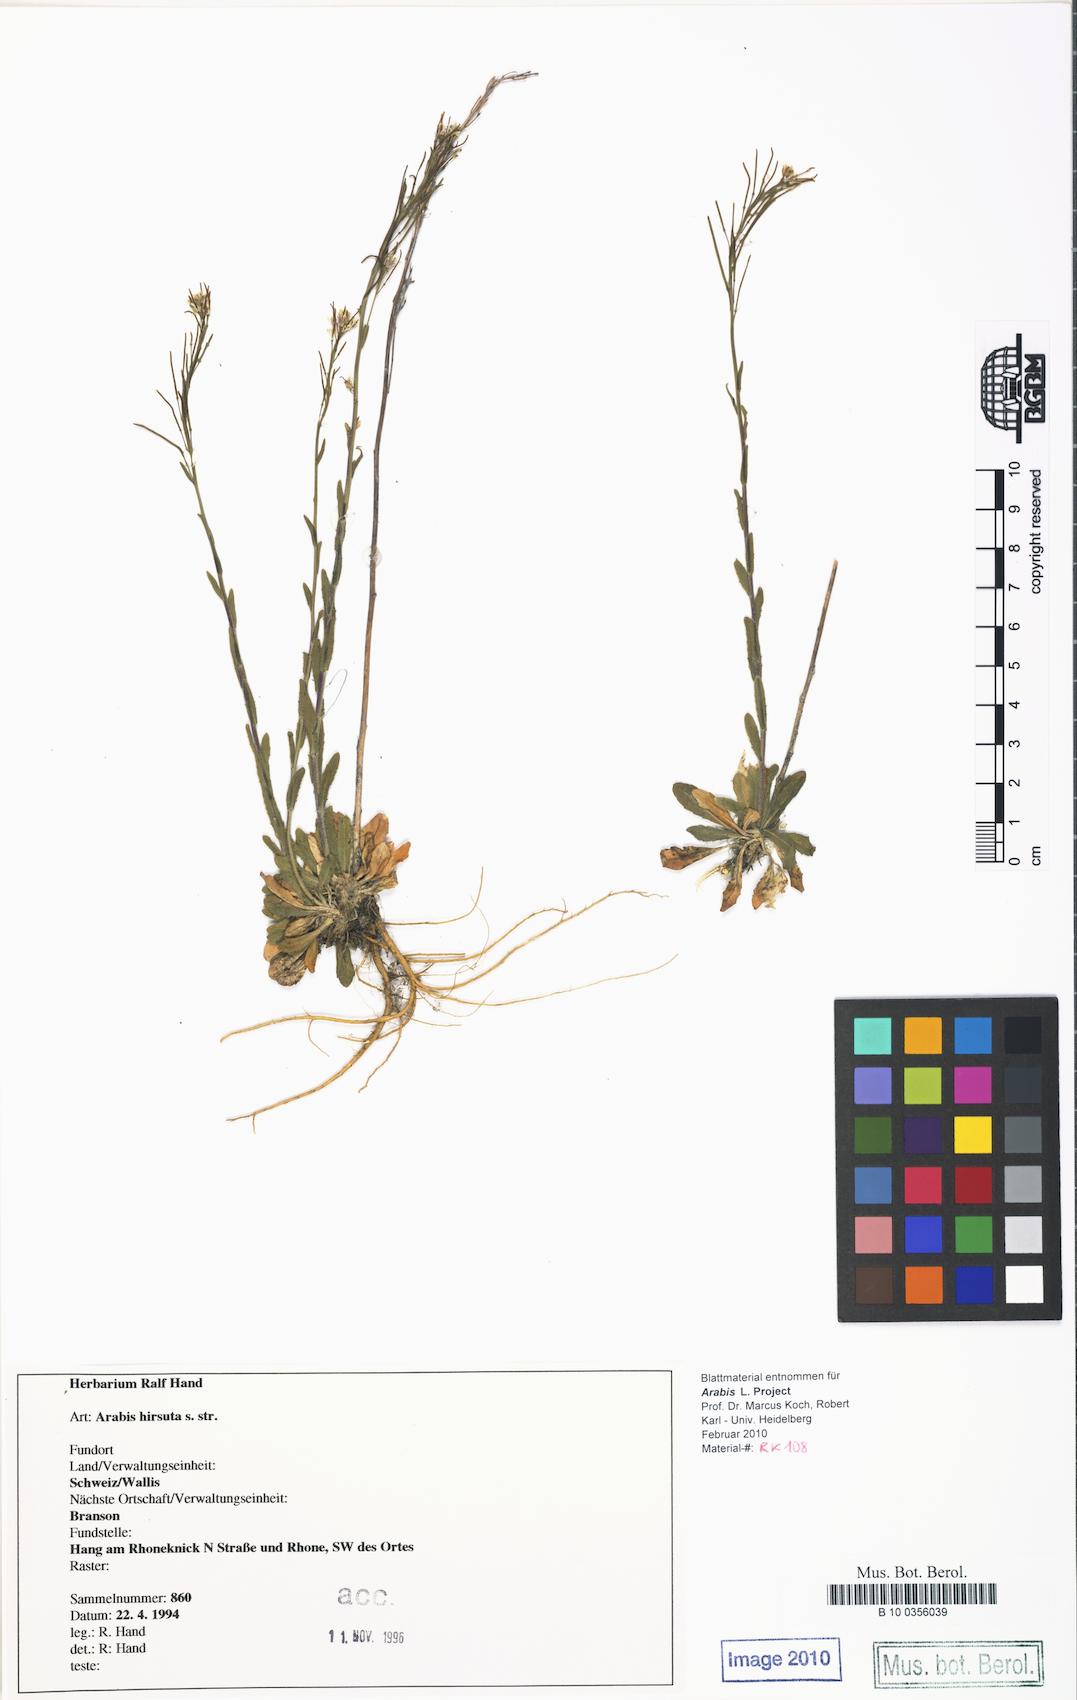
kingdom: Plantae
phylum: Tracheophyta
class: Magnoliopsida
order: Brassicales
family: Brassicaceae
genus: Arabis
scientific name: Arabis hirsuta
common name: Hairy rock-cress
